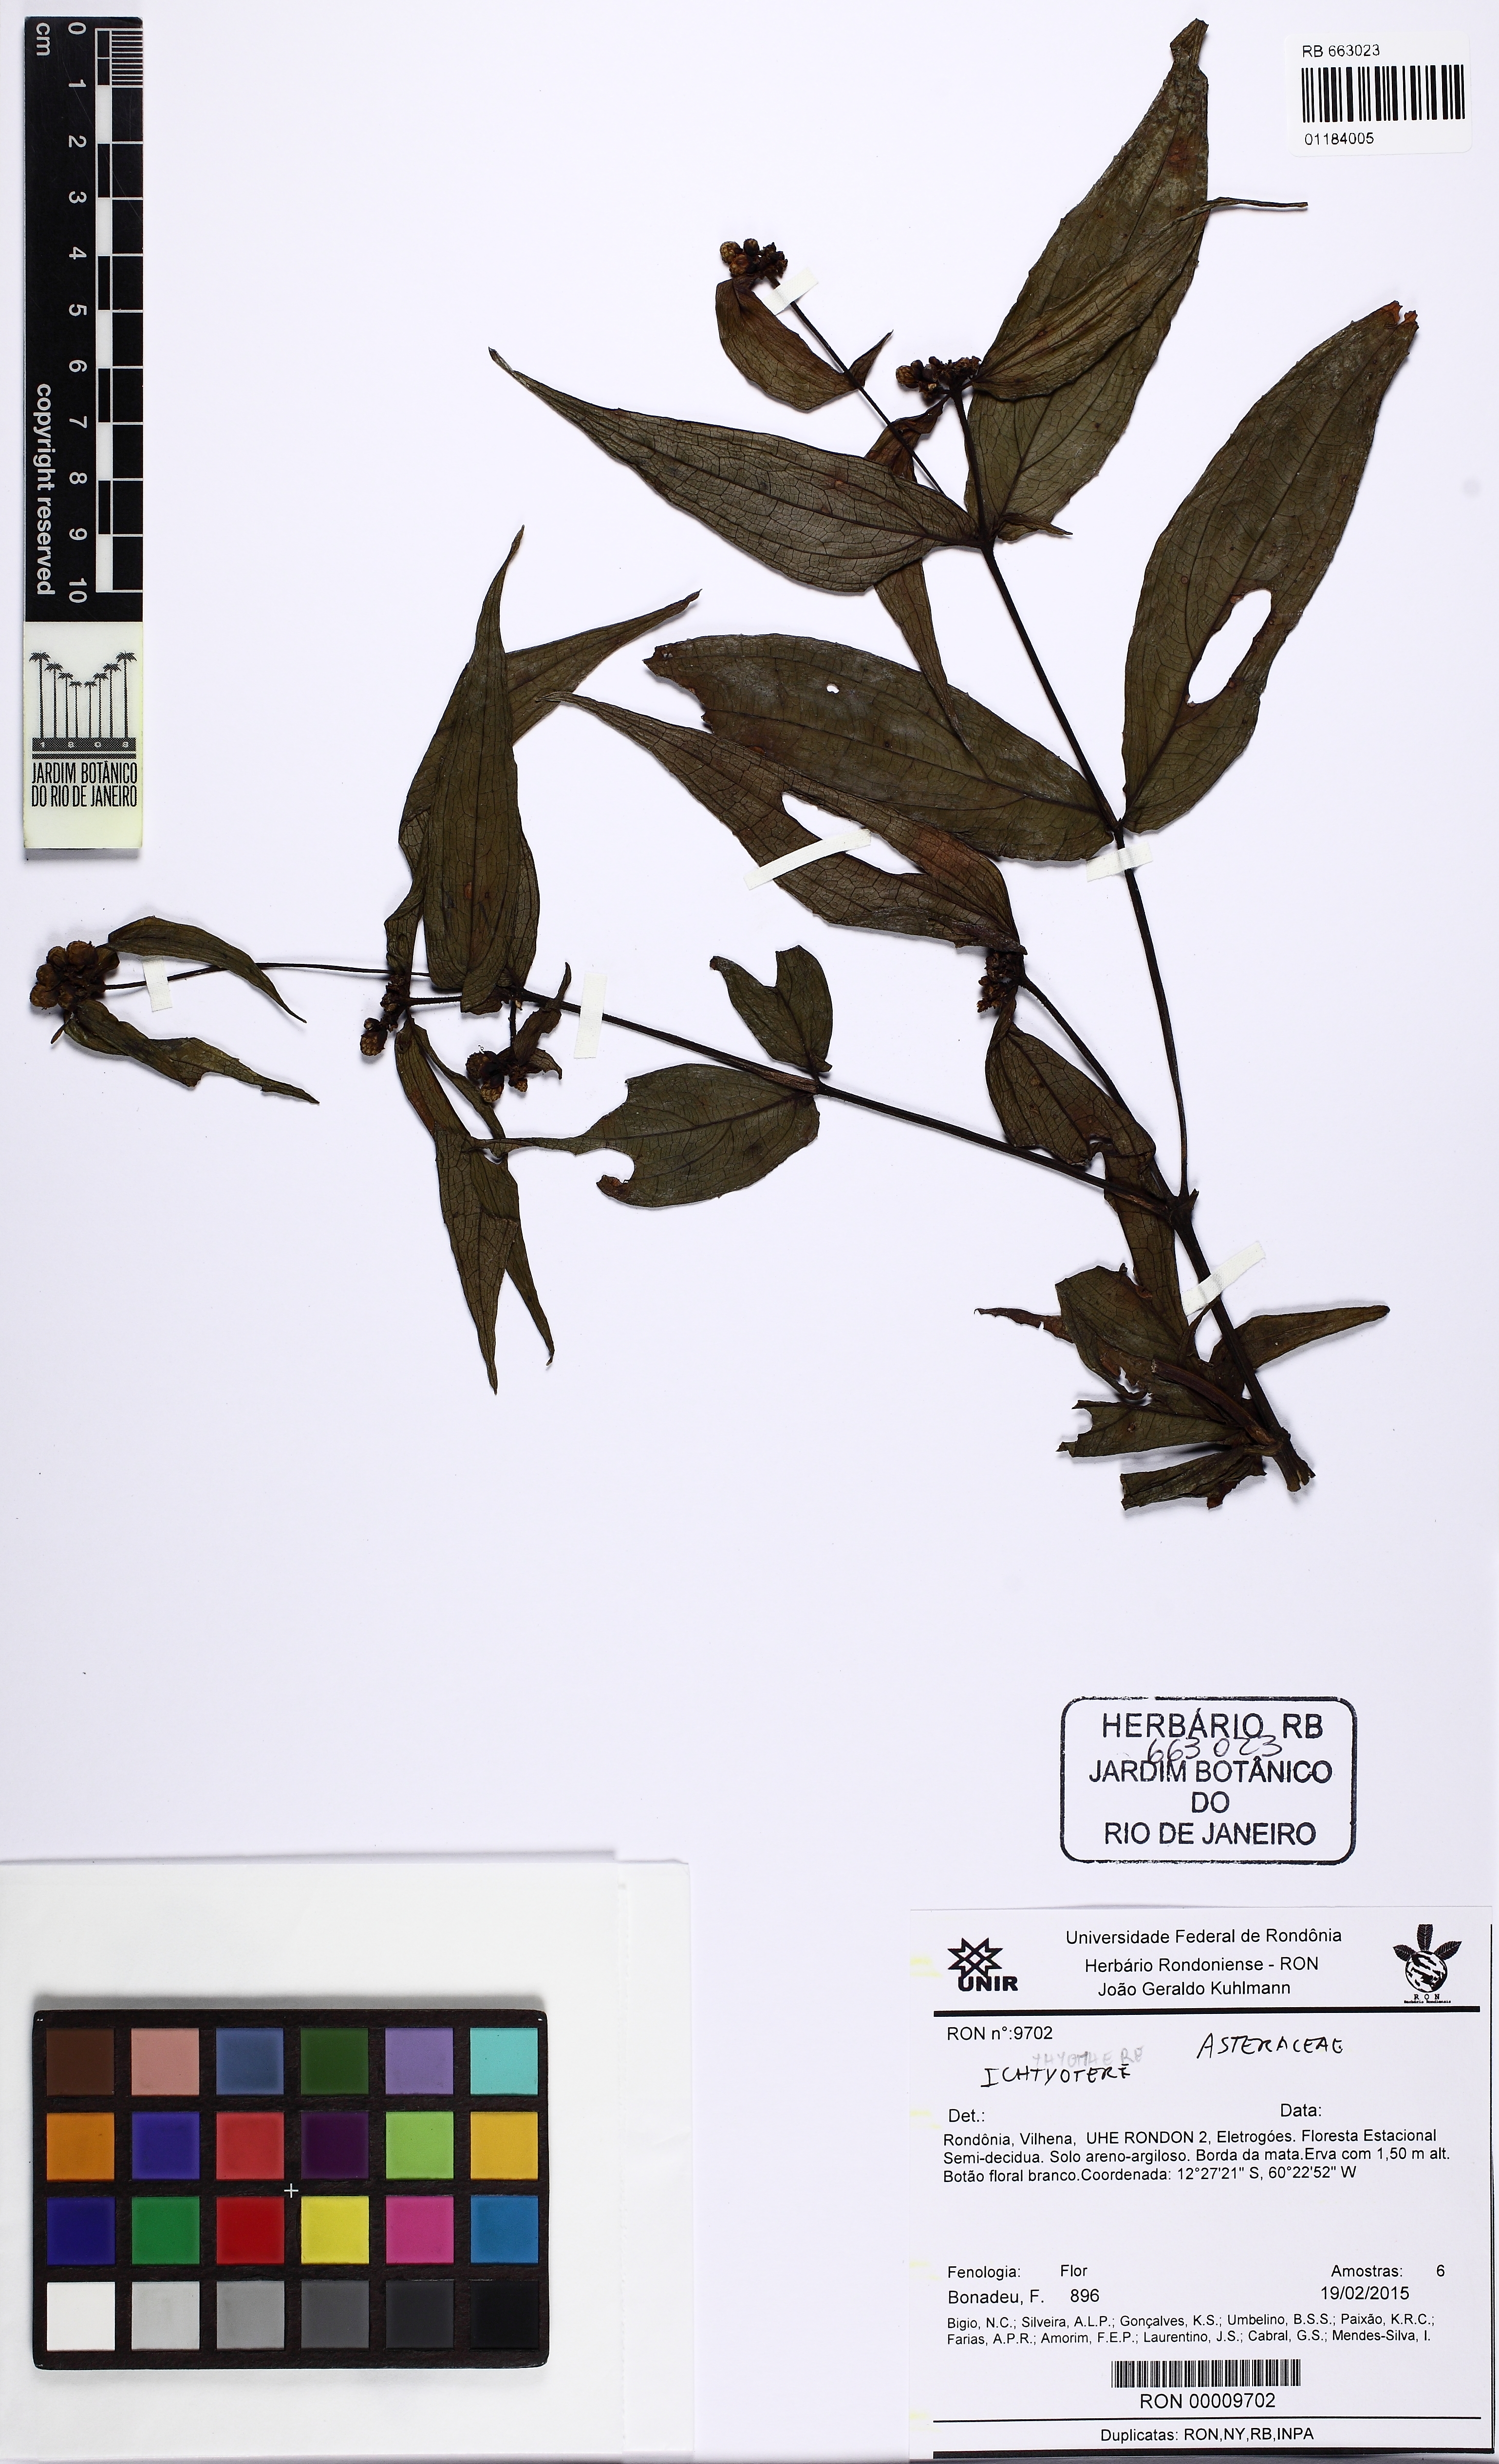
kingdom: Plantae
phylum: Tracheophyta
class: Magnoliopsida
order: Asterales
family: Asteraceae
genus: Ichthyothere
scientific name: Ichthyothere
